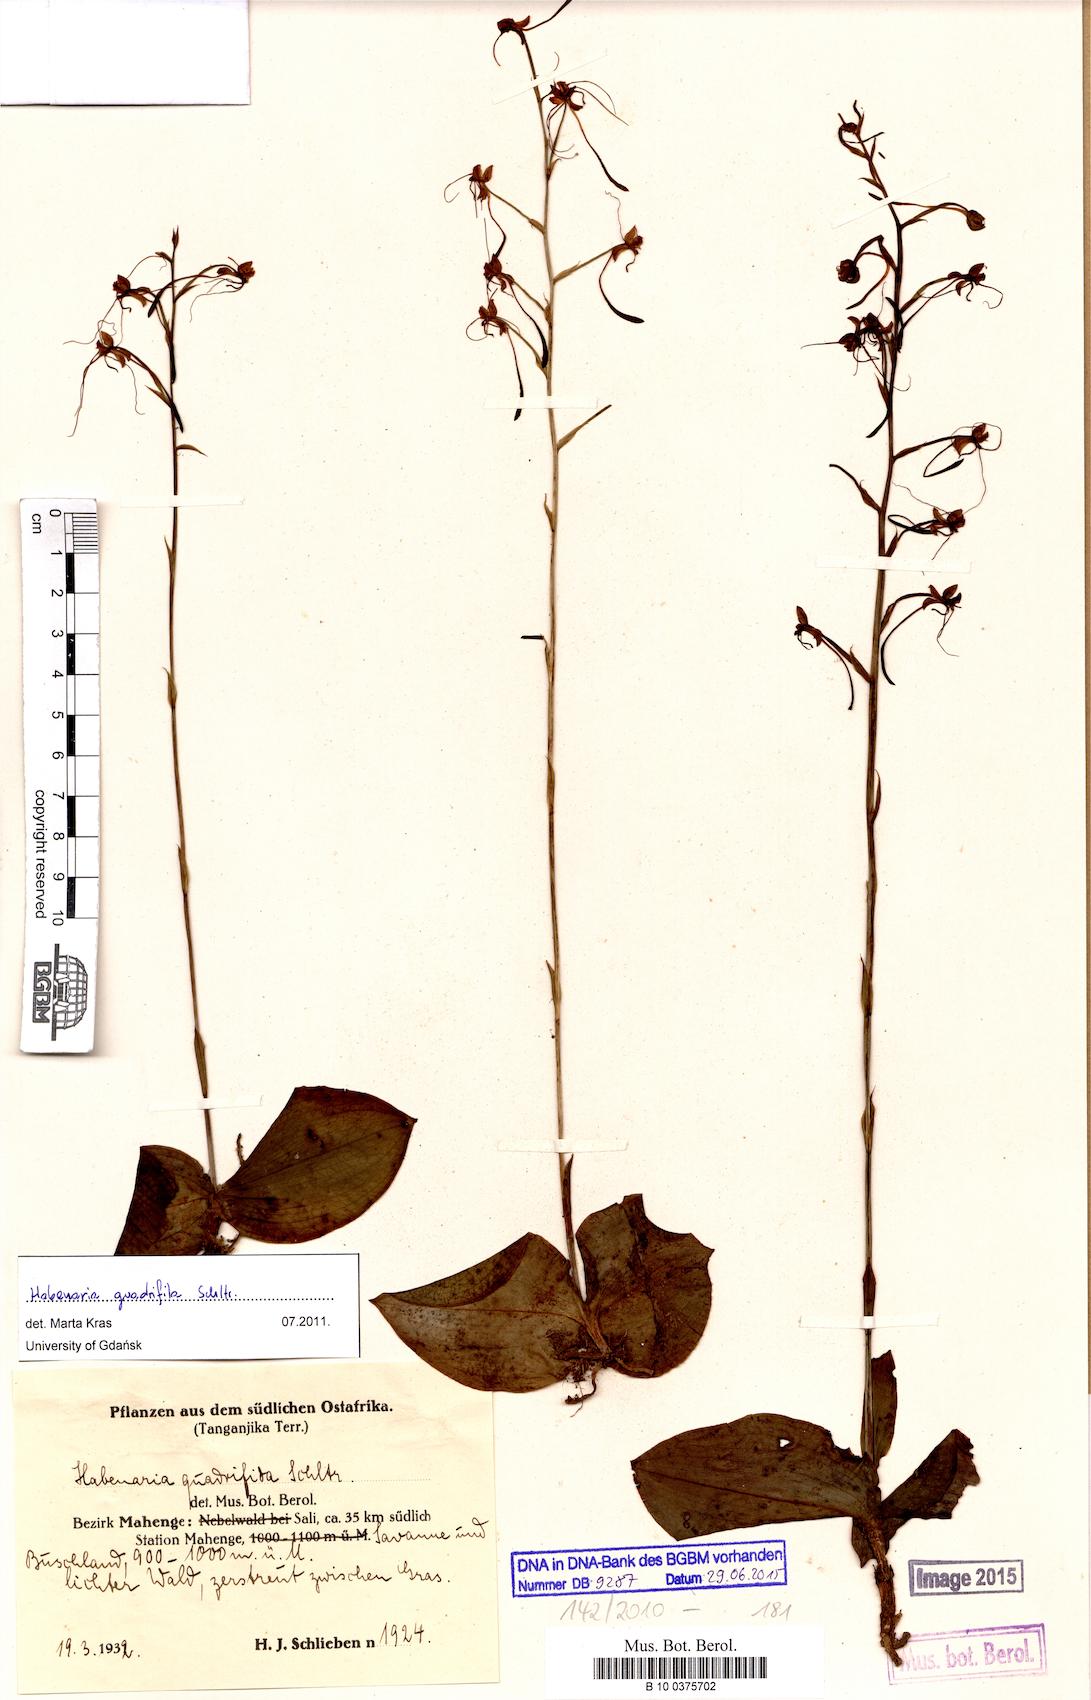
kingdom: Plantae
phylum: Tracheophyta
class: Liliopsida
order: Asparagales
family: Orchidaceae
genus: Habenaria
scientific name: Habenaria trilobulata
